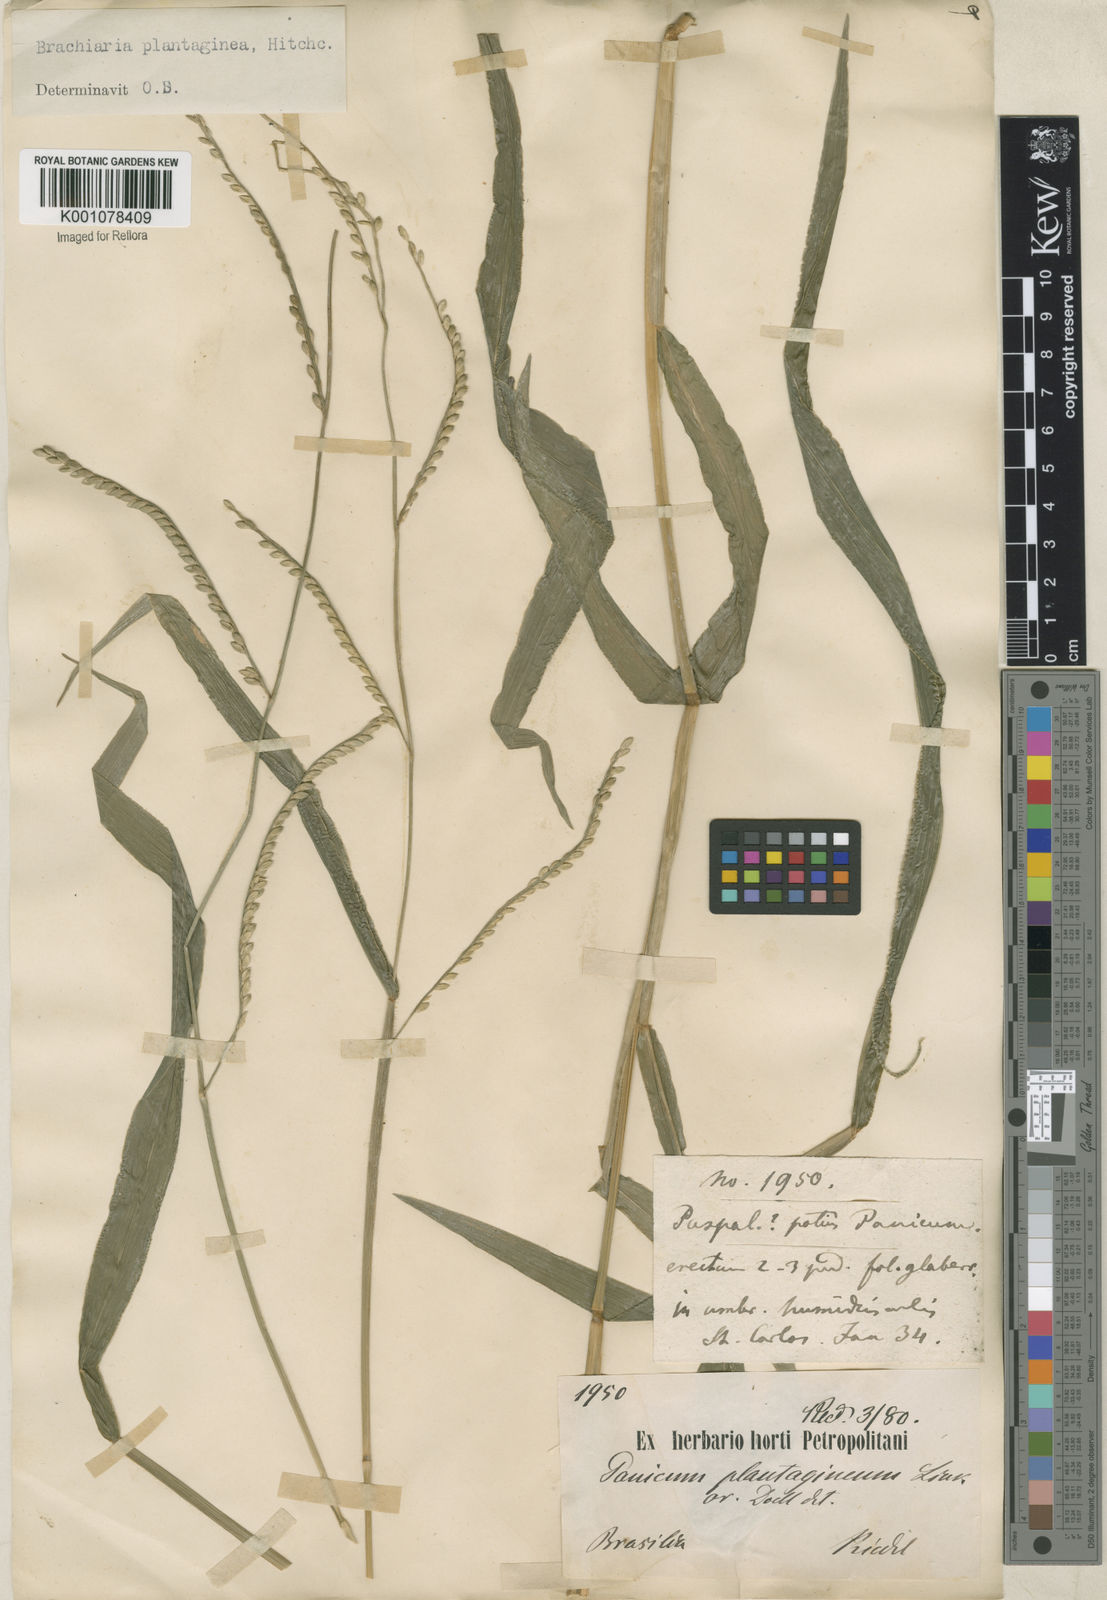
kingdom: Plantae
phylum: Tracheophyta
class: Liliopsida
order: Poales
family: Poaceae
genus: Urochloa
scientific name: Urochloa plantaginea
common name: Plantain signalgrass
